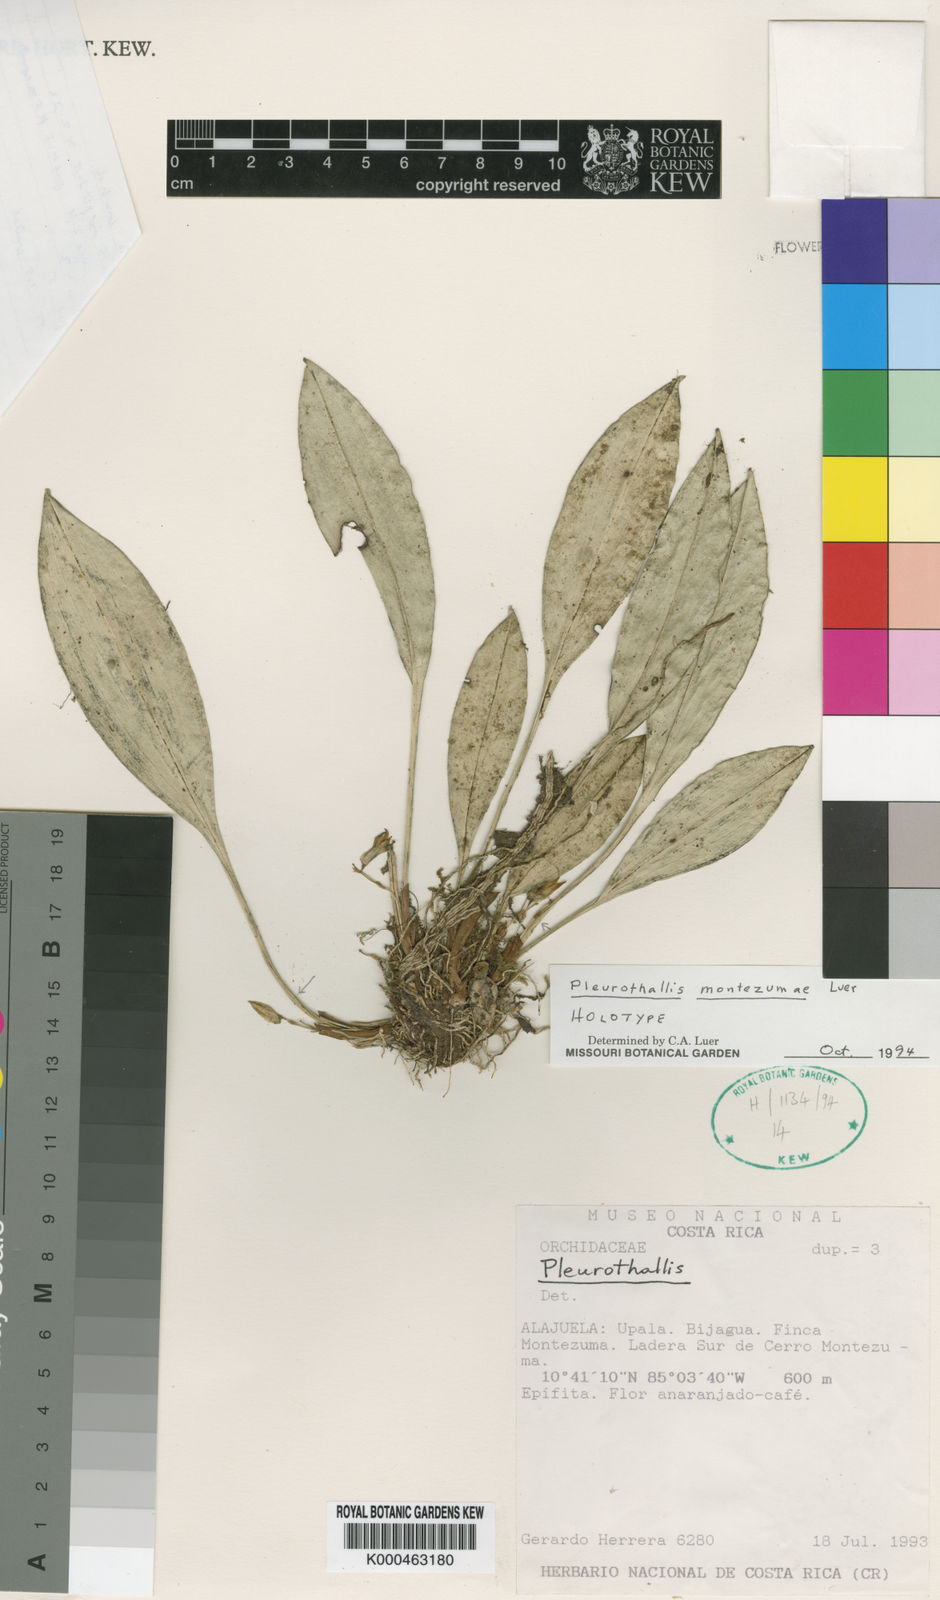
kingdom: Plantae
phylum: Tracheophyta
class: Liliopsida
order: Asparagales
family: Orchidaceae
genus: Specklinia
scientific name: Specklinia montezumae
